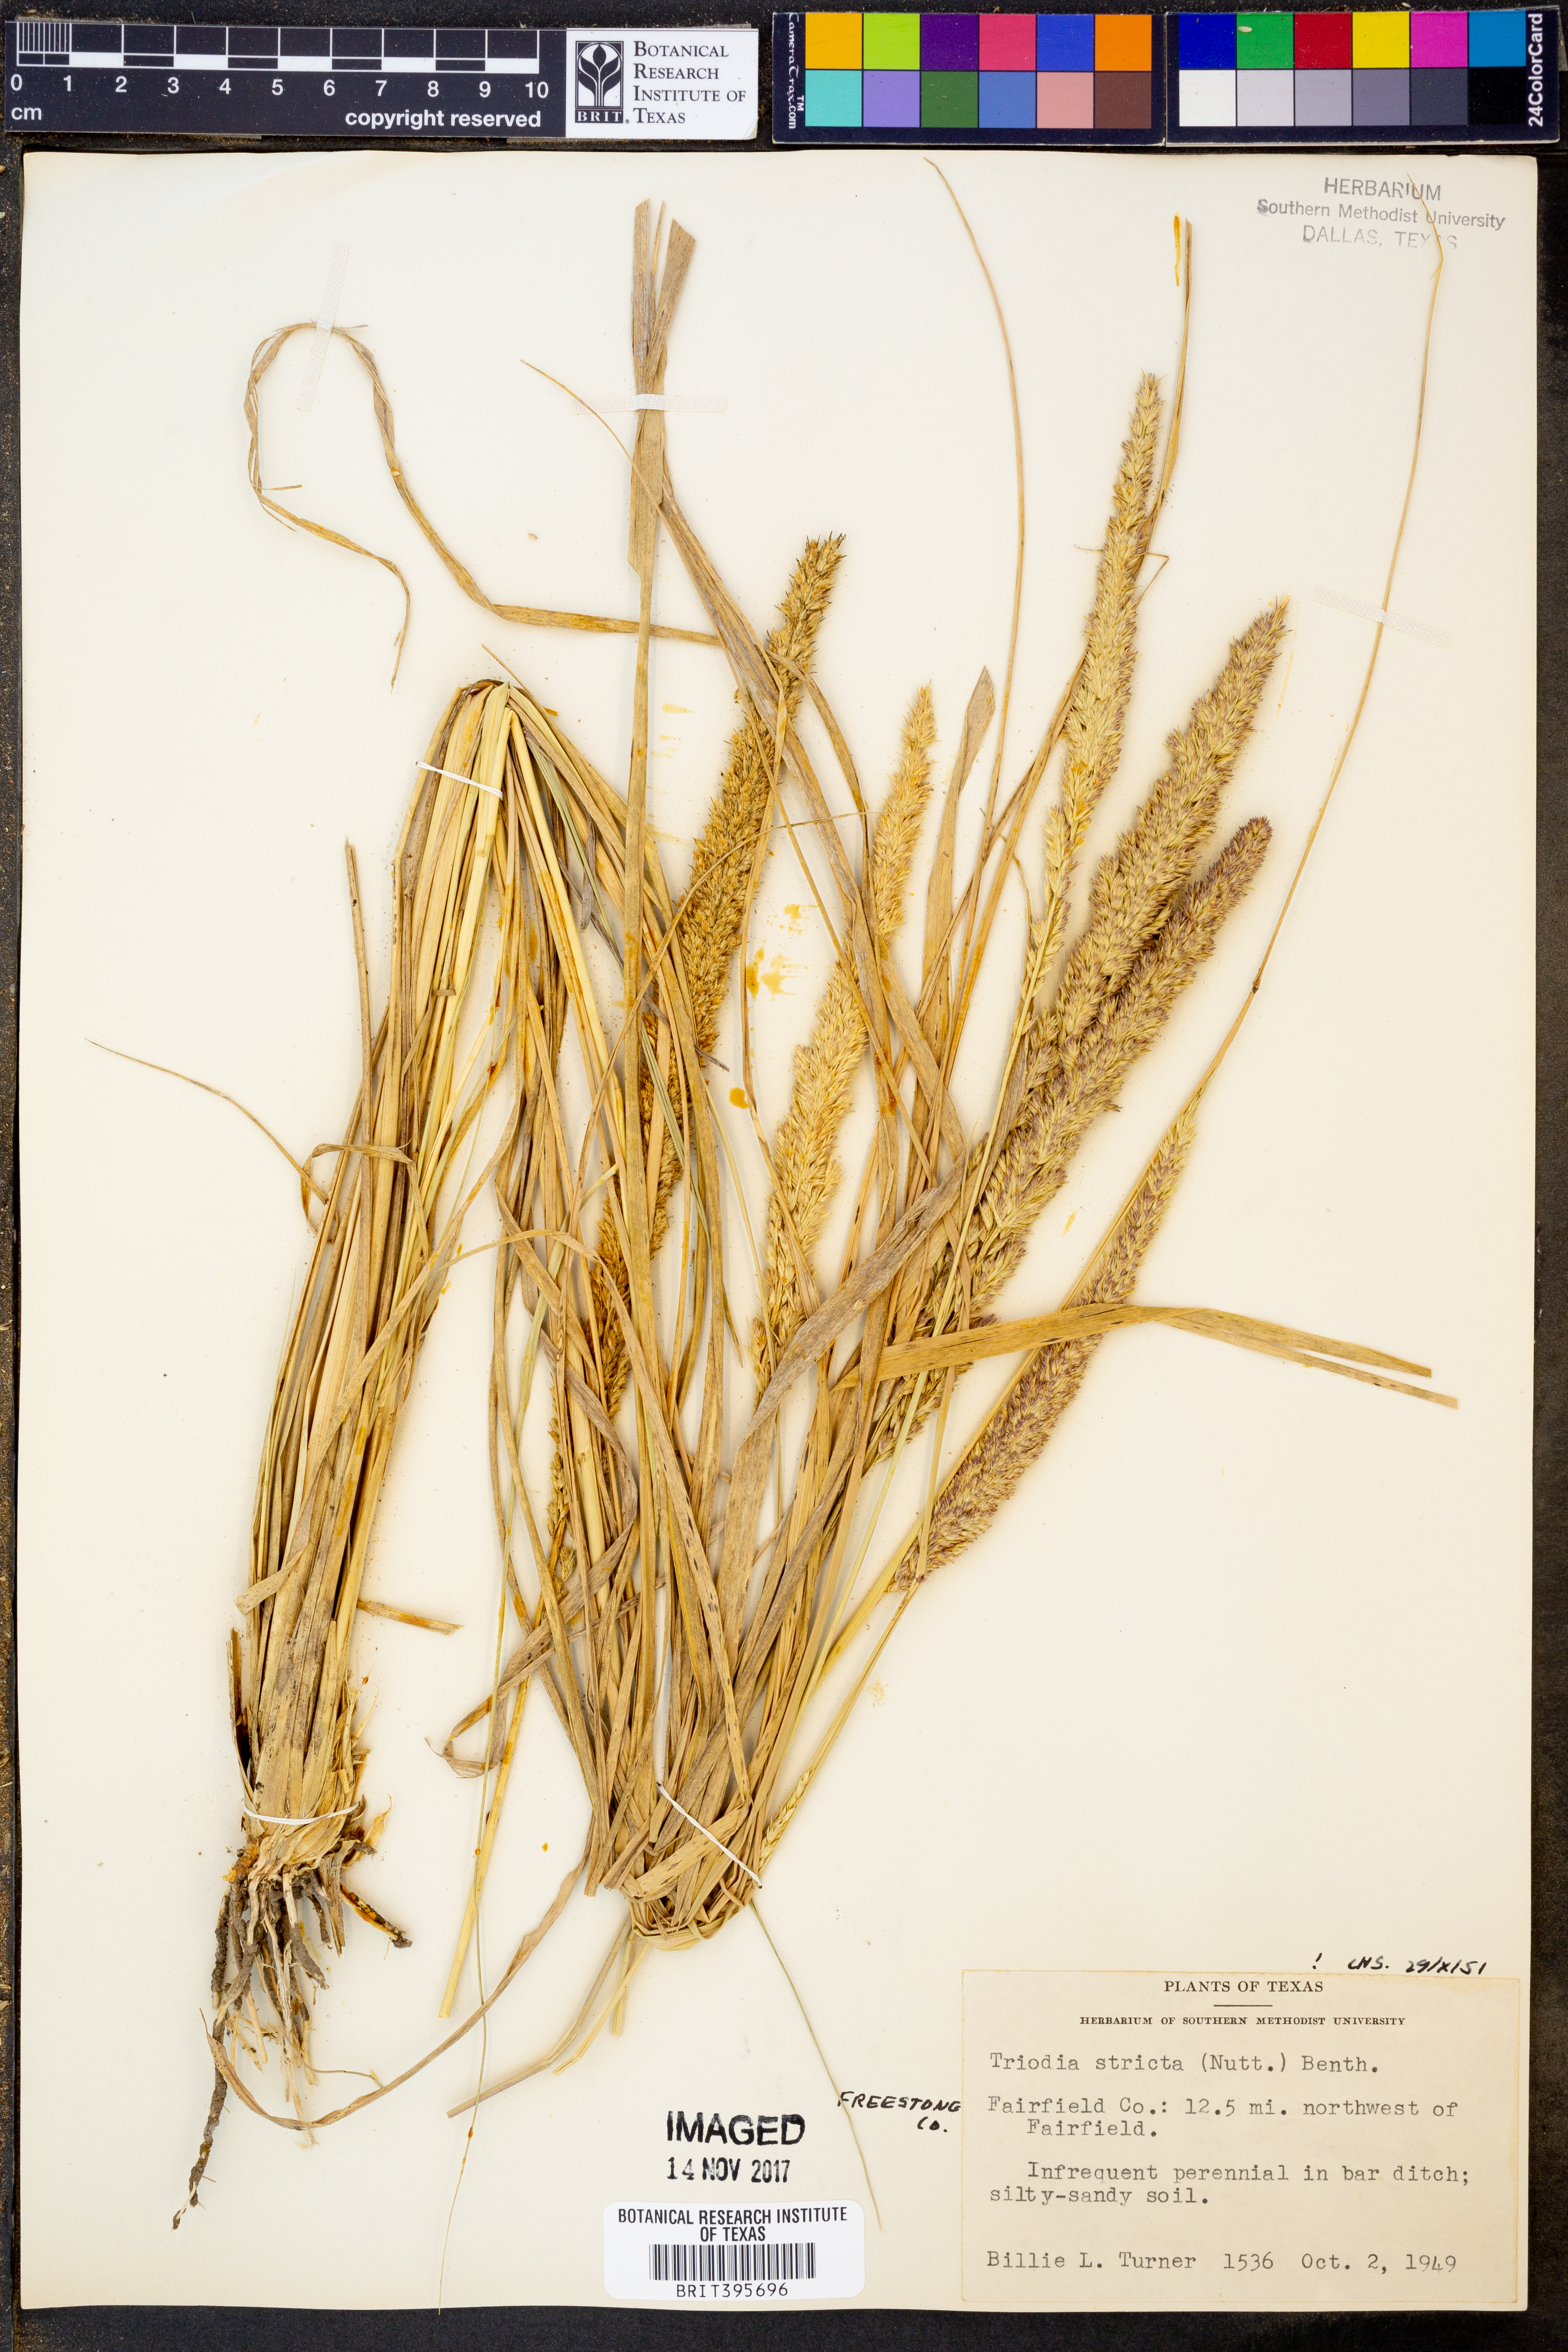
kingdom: Plantae
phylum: Tracheophyta
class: Liliopsida
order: Poales
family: Poaceae
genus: Tridens
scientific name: Tridens strictus
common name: Long-spike tridens
